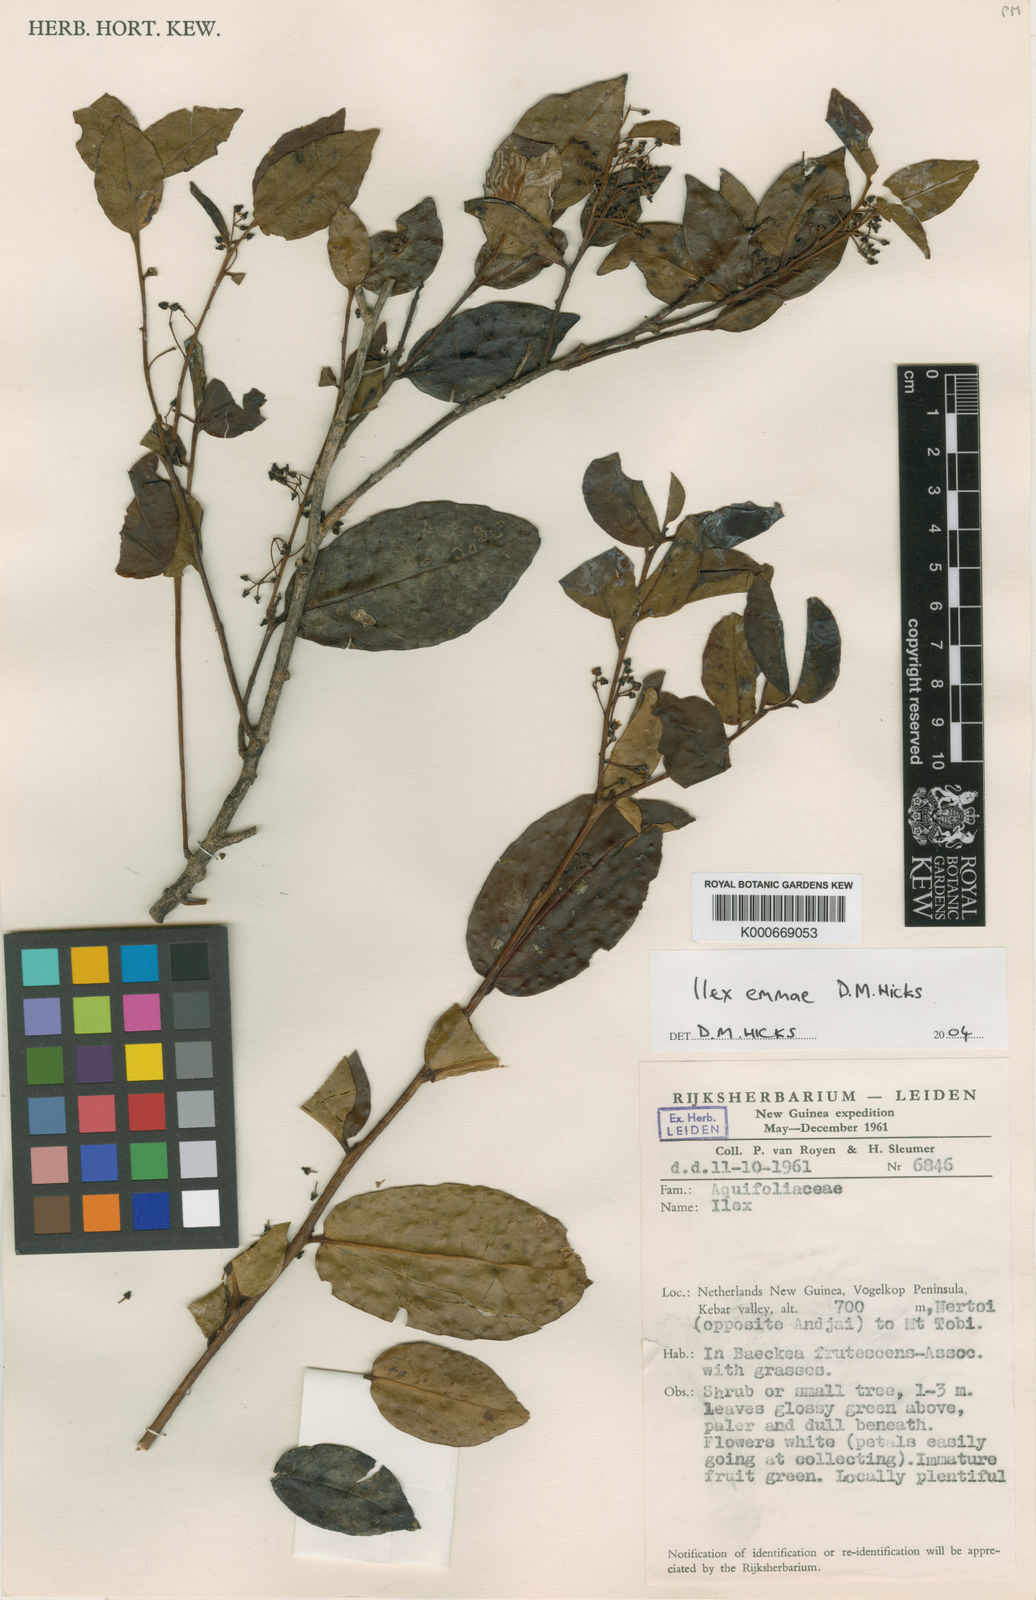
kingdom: Plantae
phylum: Tracheophyta
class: Magnoliopsida
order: Aquifoliales
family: Aquifoliaceae
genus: Ilex
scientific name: Ilex emmae
